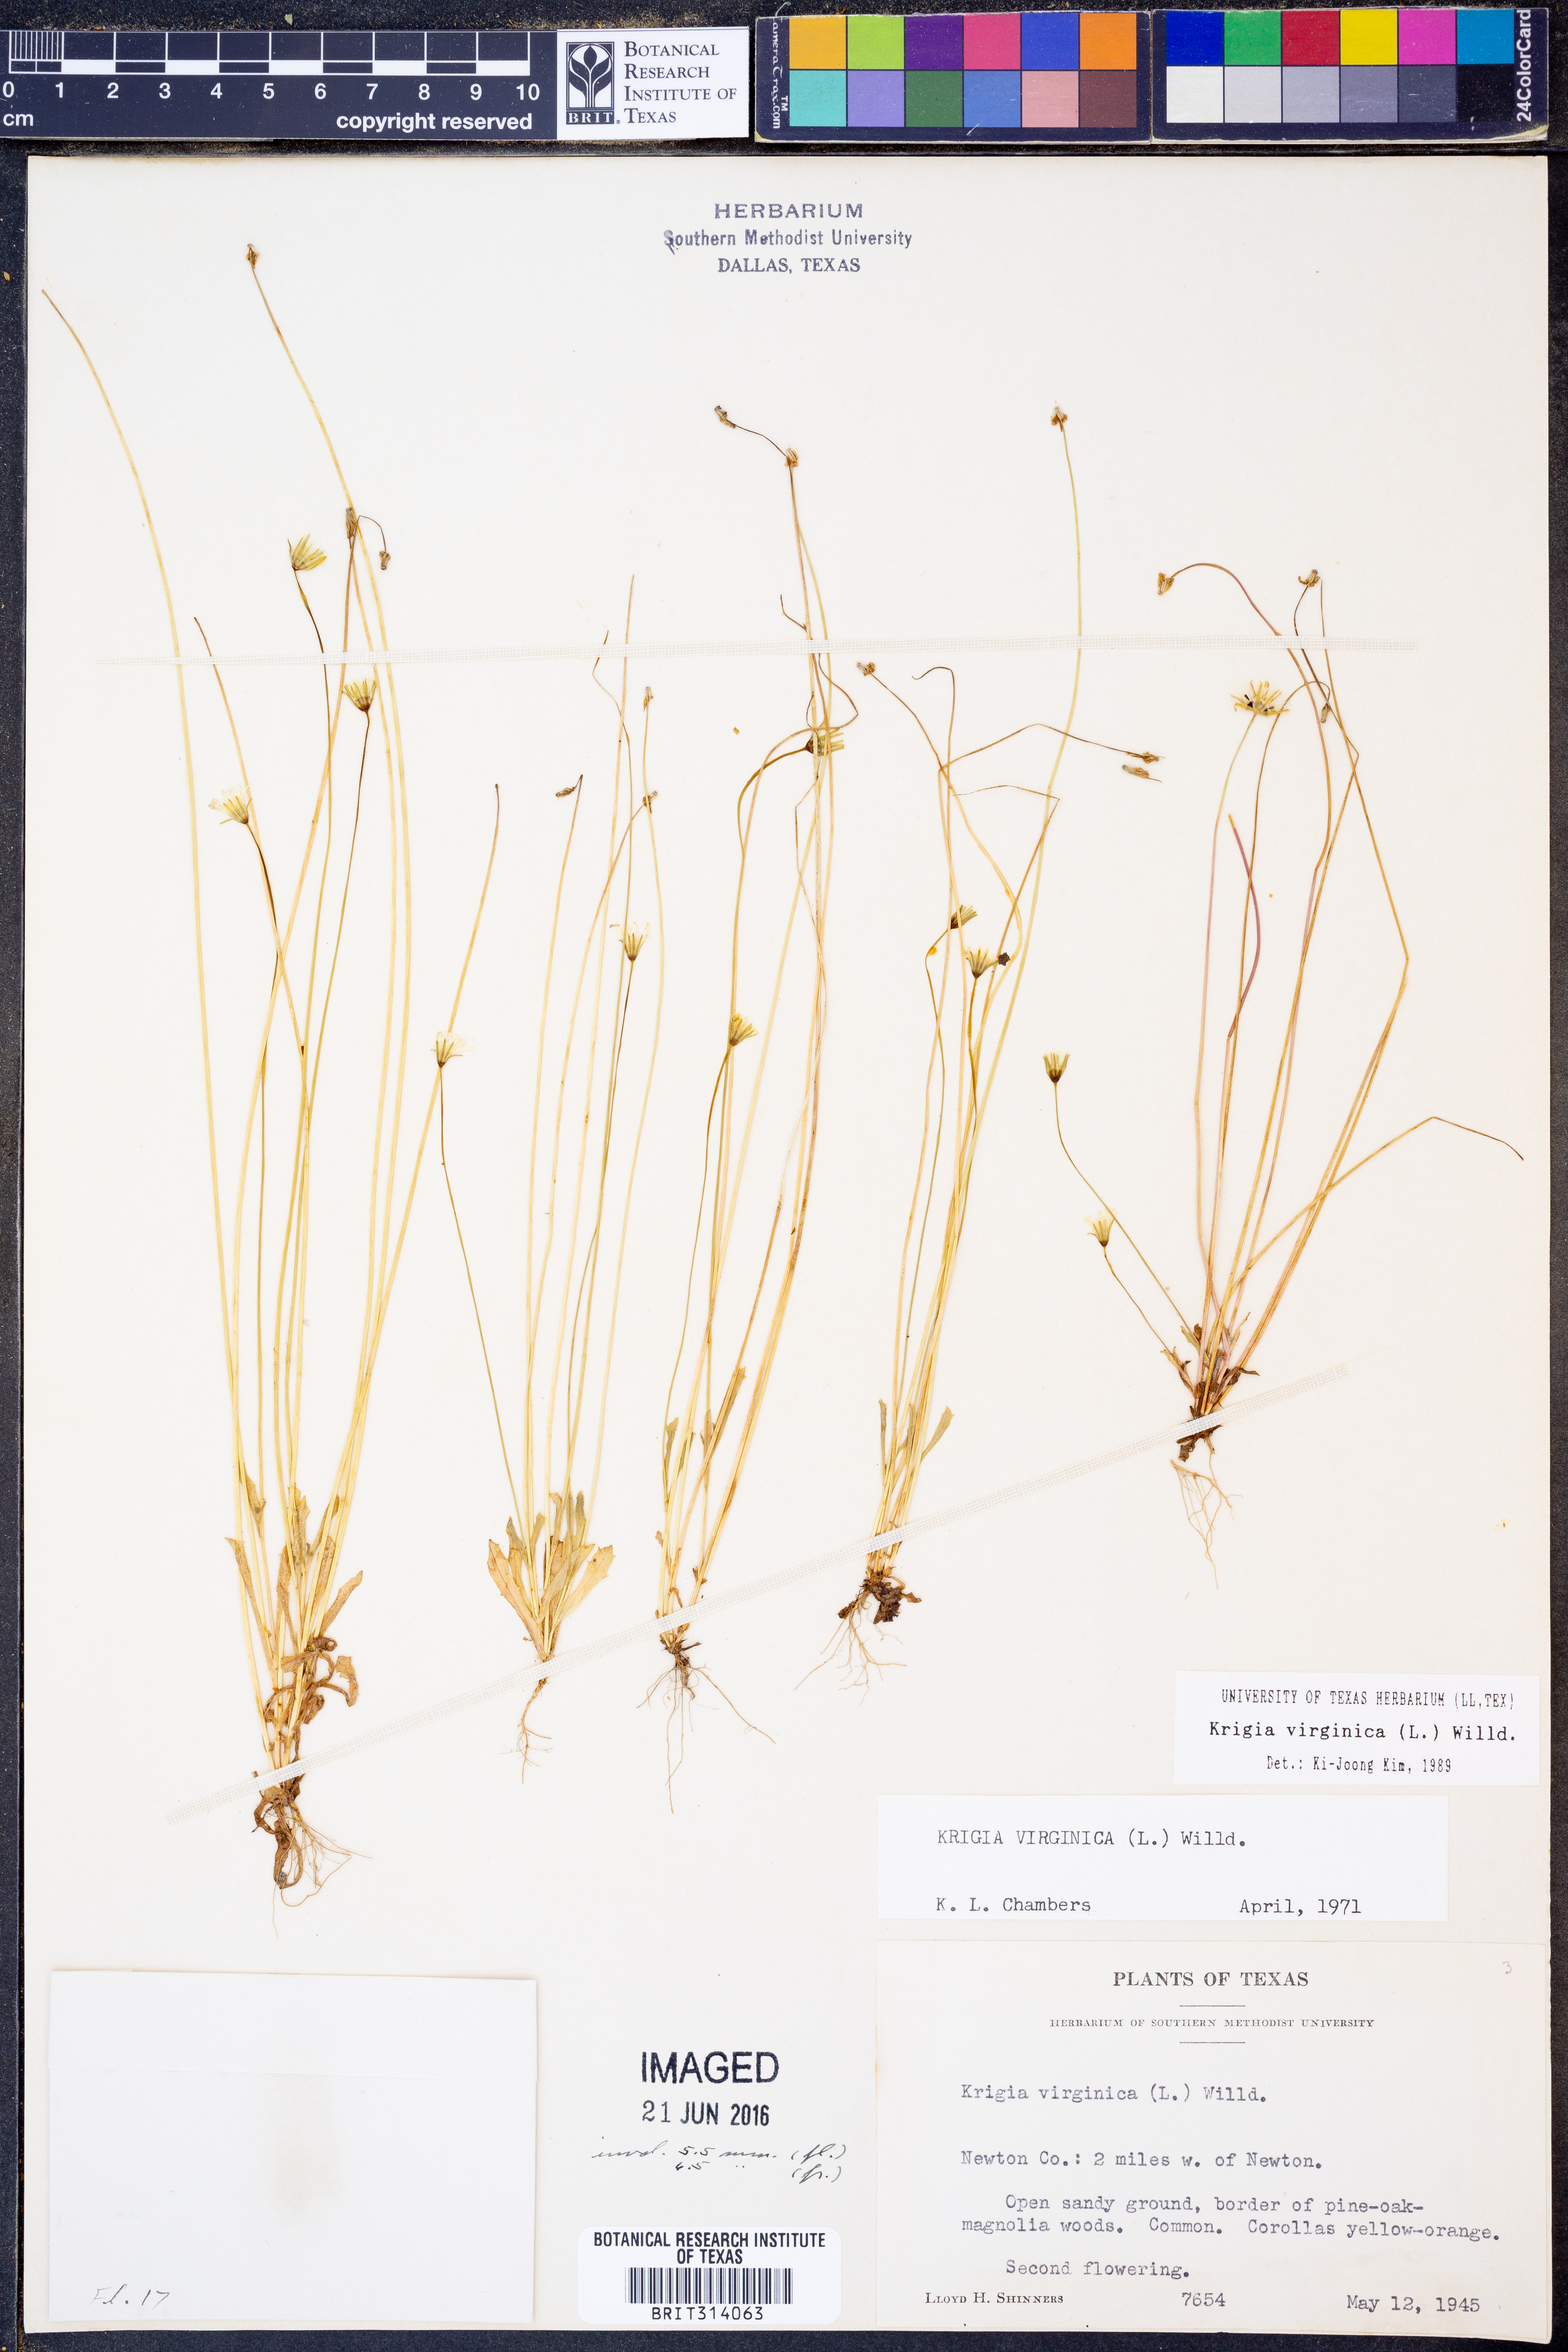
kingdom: Plantae
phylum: Tracheophyta
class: Magnoliopsida
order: Asterales
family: Asteraceae
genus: Krigia
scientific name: Krigia virginica
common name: Virginia dwarf-dandelion
